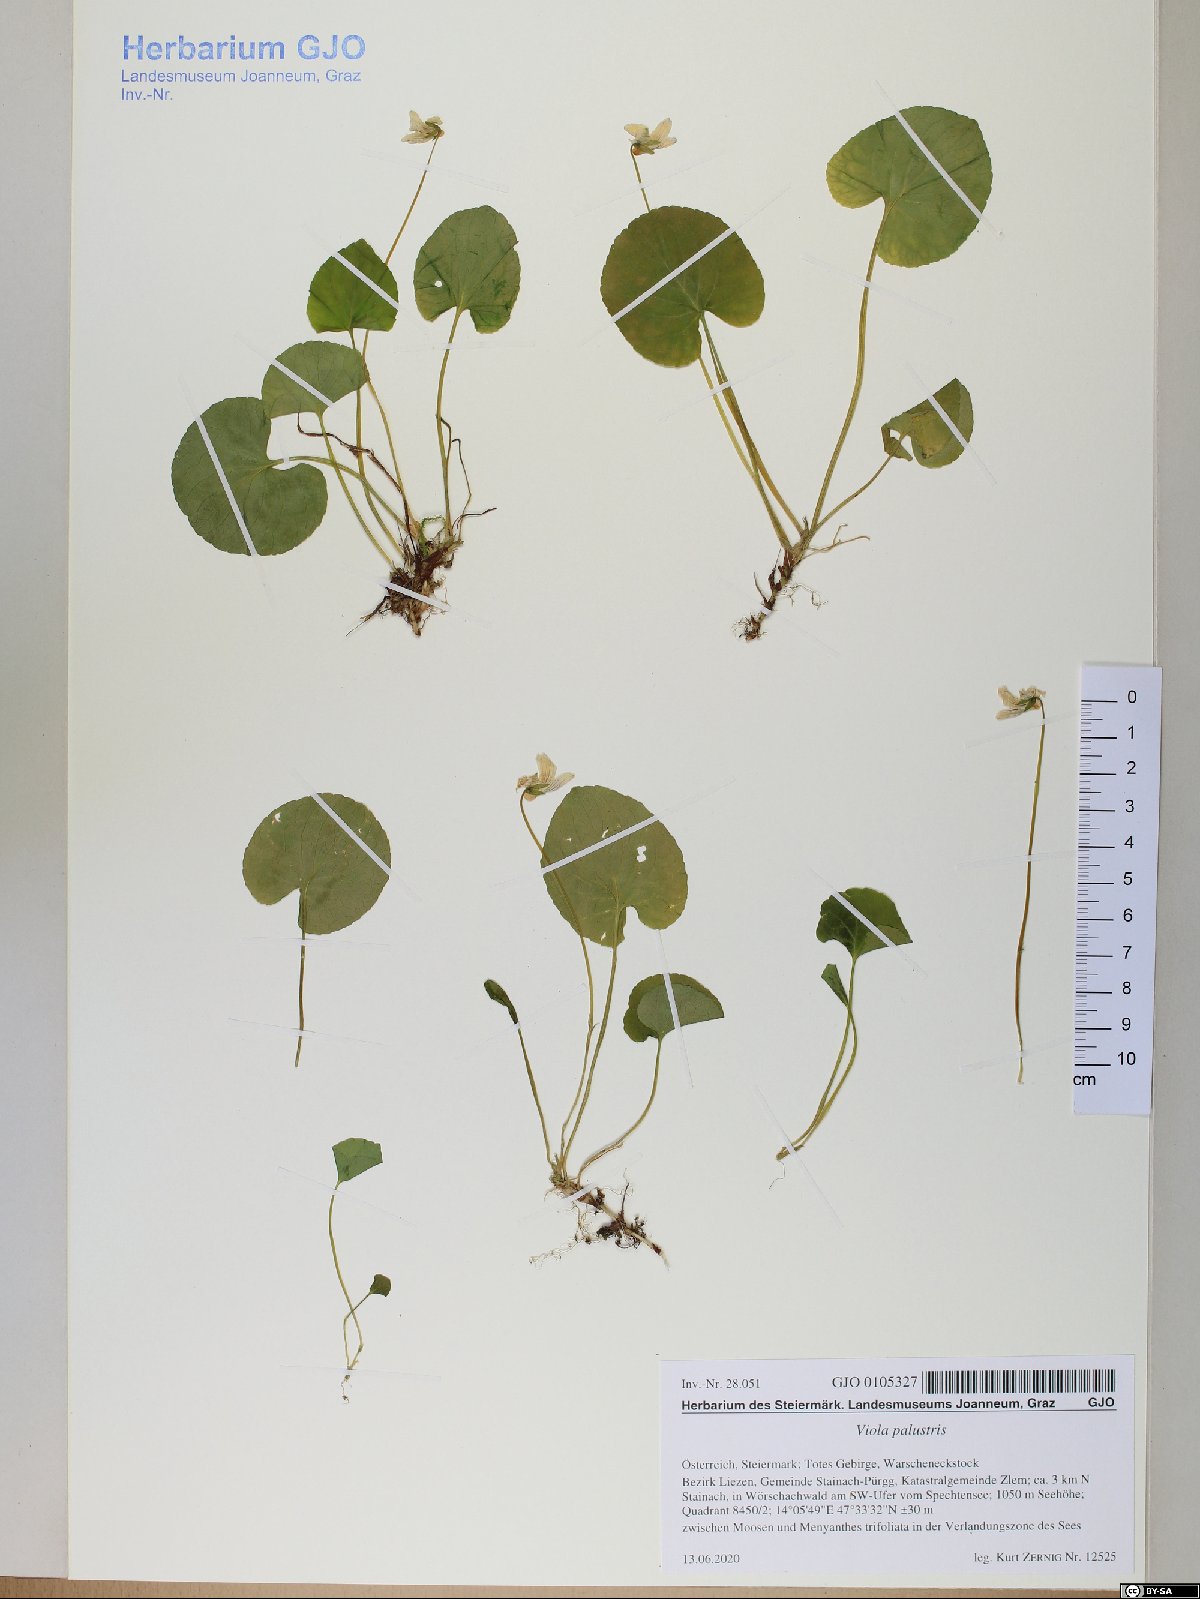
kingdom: Plantae
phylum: Tracheophyta
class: Magnoliopsida
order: Malpighiales
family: Violaceae
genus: Viola
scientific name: Viola palustris
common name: Marsh violet
